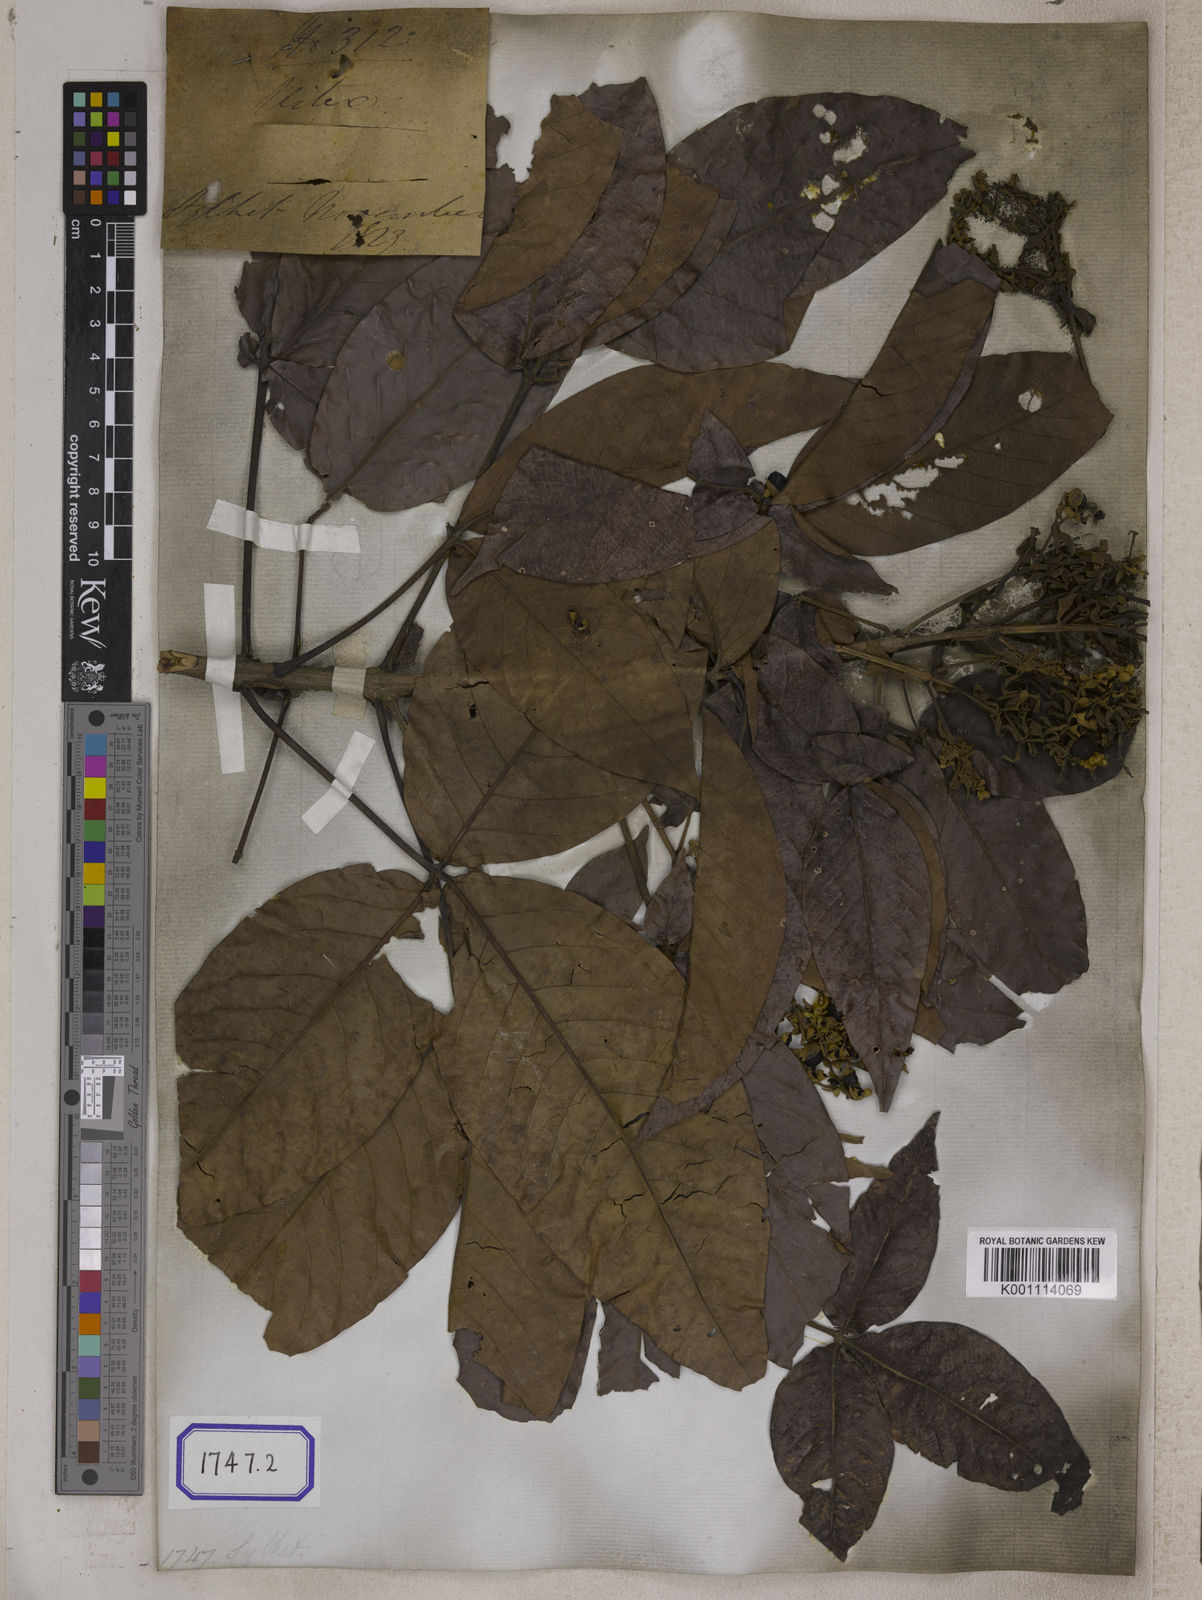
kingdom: Plantae
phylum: Tracheophyta
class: Magnoliopsida
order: Lamiales
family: Lamiaceae
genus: Vitex
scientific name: Vitex pinnata
